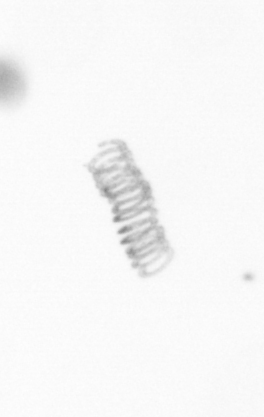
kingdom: Chromista
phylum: Ochrophyta
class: Bacillariophyceae
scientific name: Bacillariophyceae
